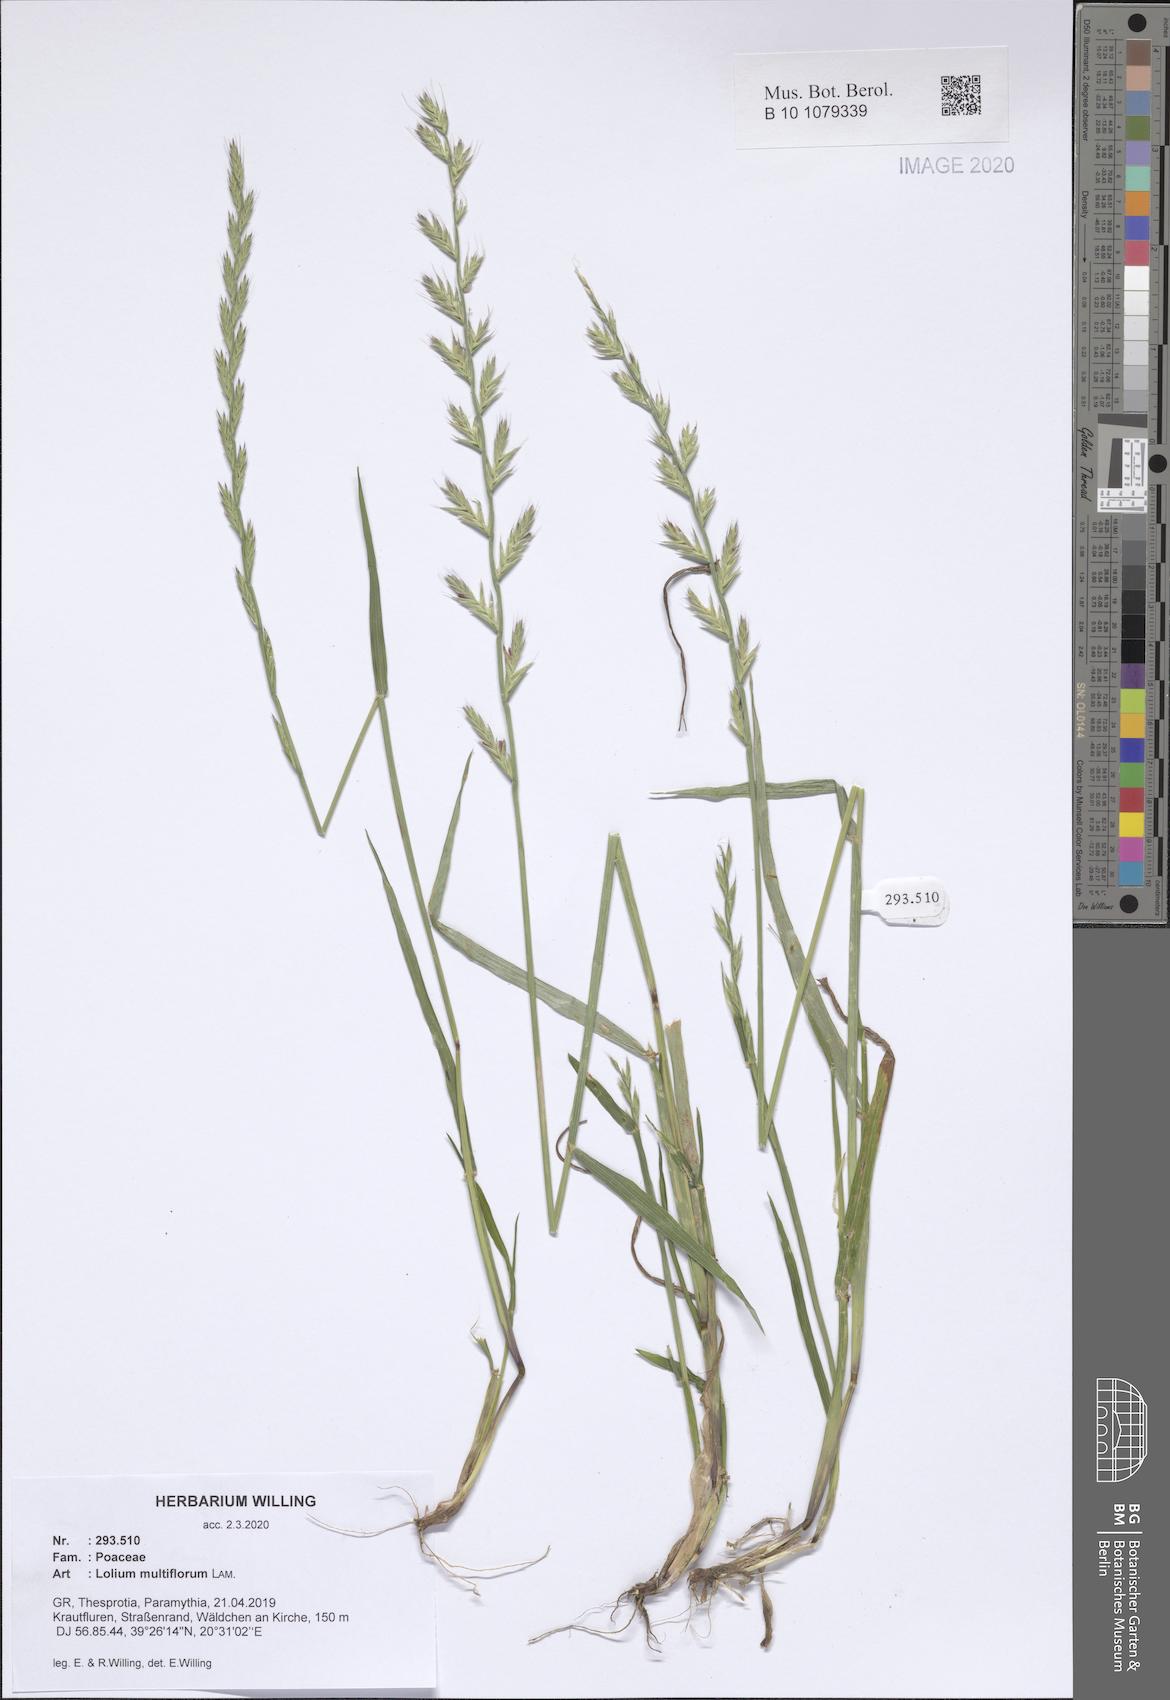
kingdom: Plantae
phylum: Tracheophyta
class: Liliopsida
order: Poales
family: Poaceae
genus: Lolium
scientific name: Lolium multiflorum
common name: Annual ryegrass
